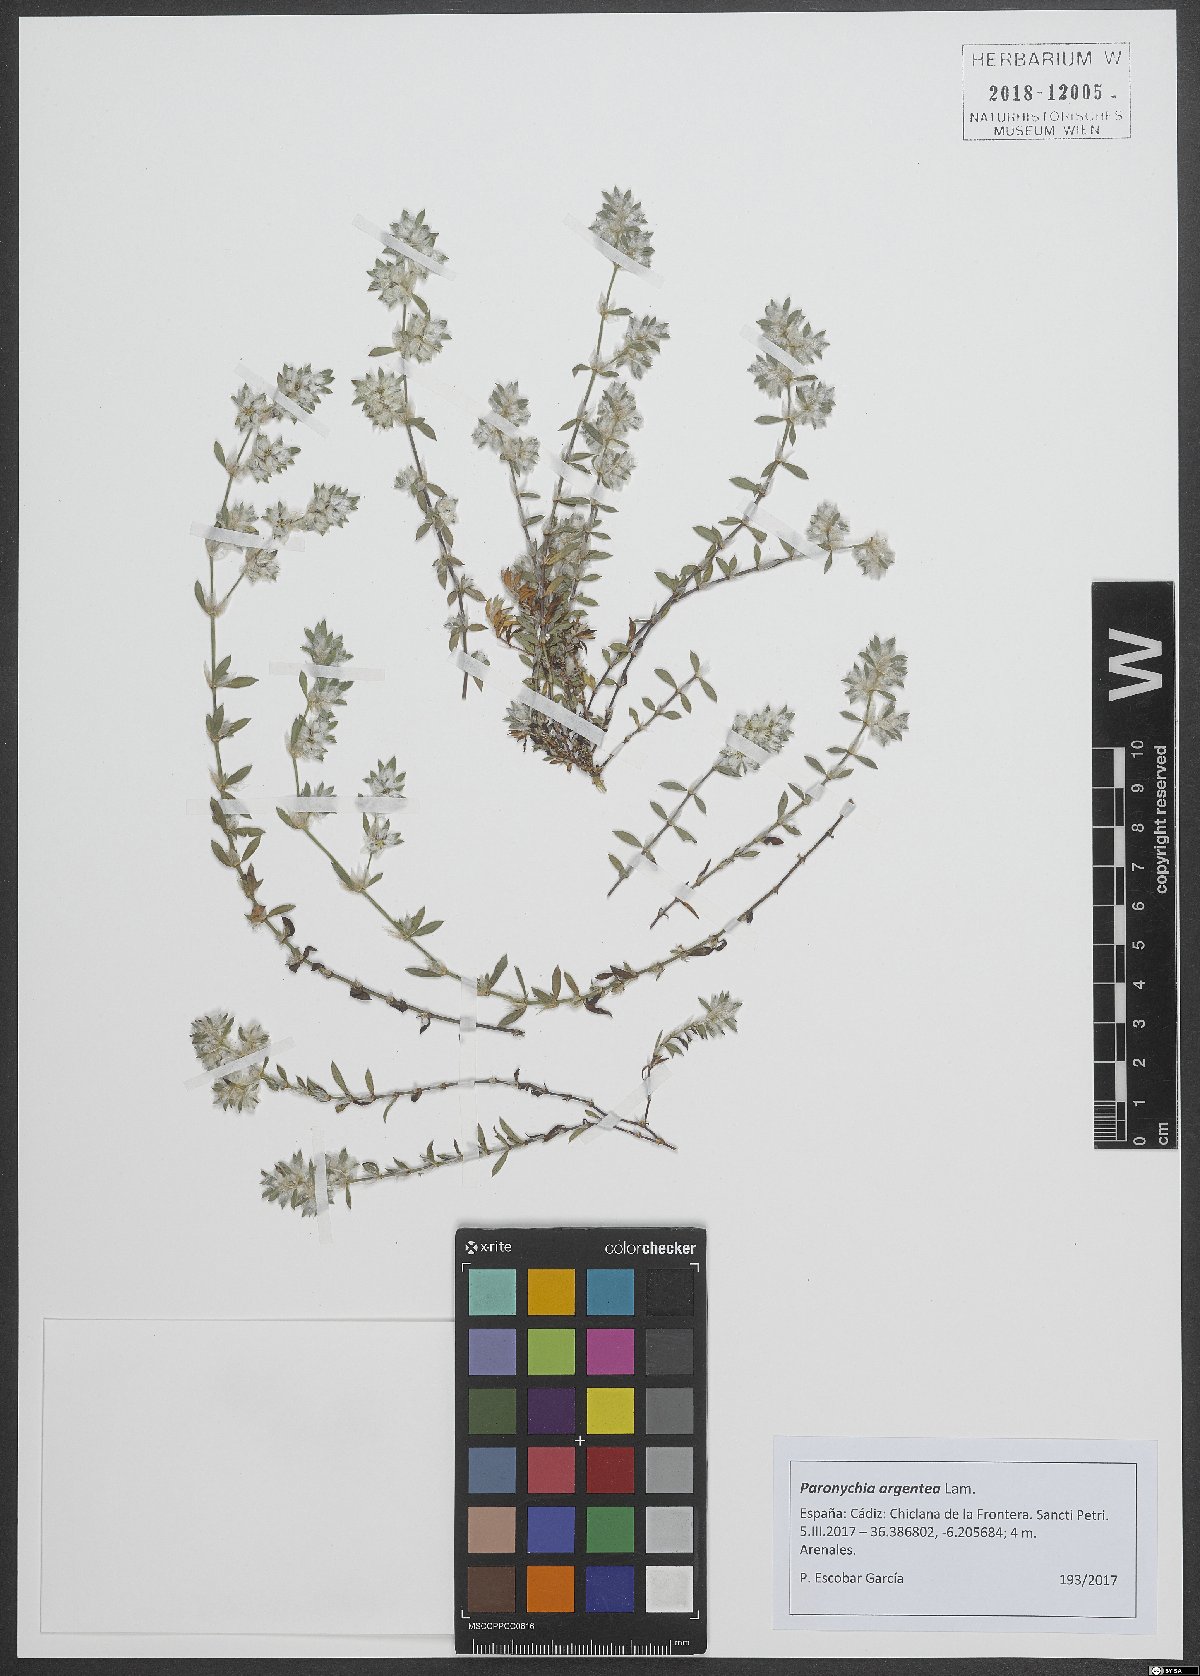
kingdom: Plantae
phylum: Tracheophyta
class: Magnoliopsida
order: Caryophyllales
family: Caryophyllaceae
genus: Paronychia
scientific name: Paronychia argentea
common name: Silver nailroot
